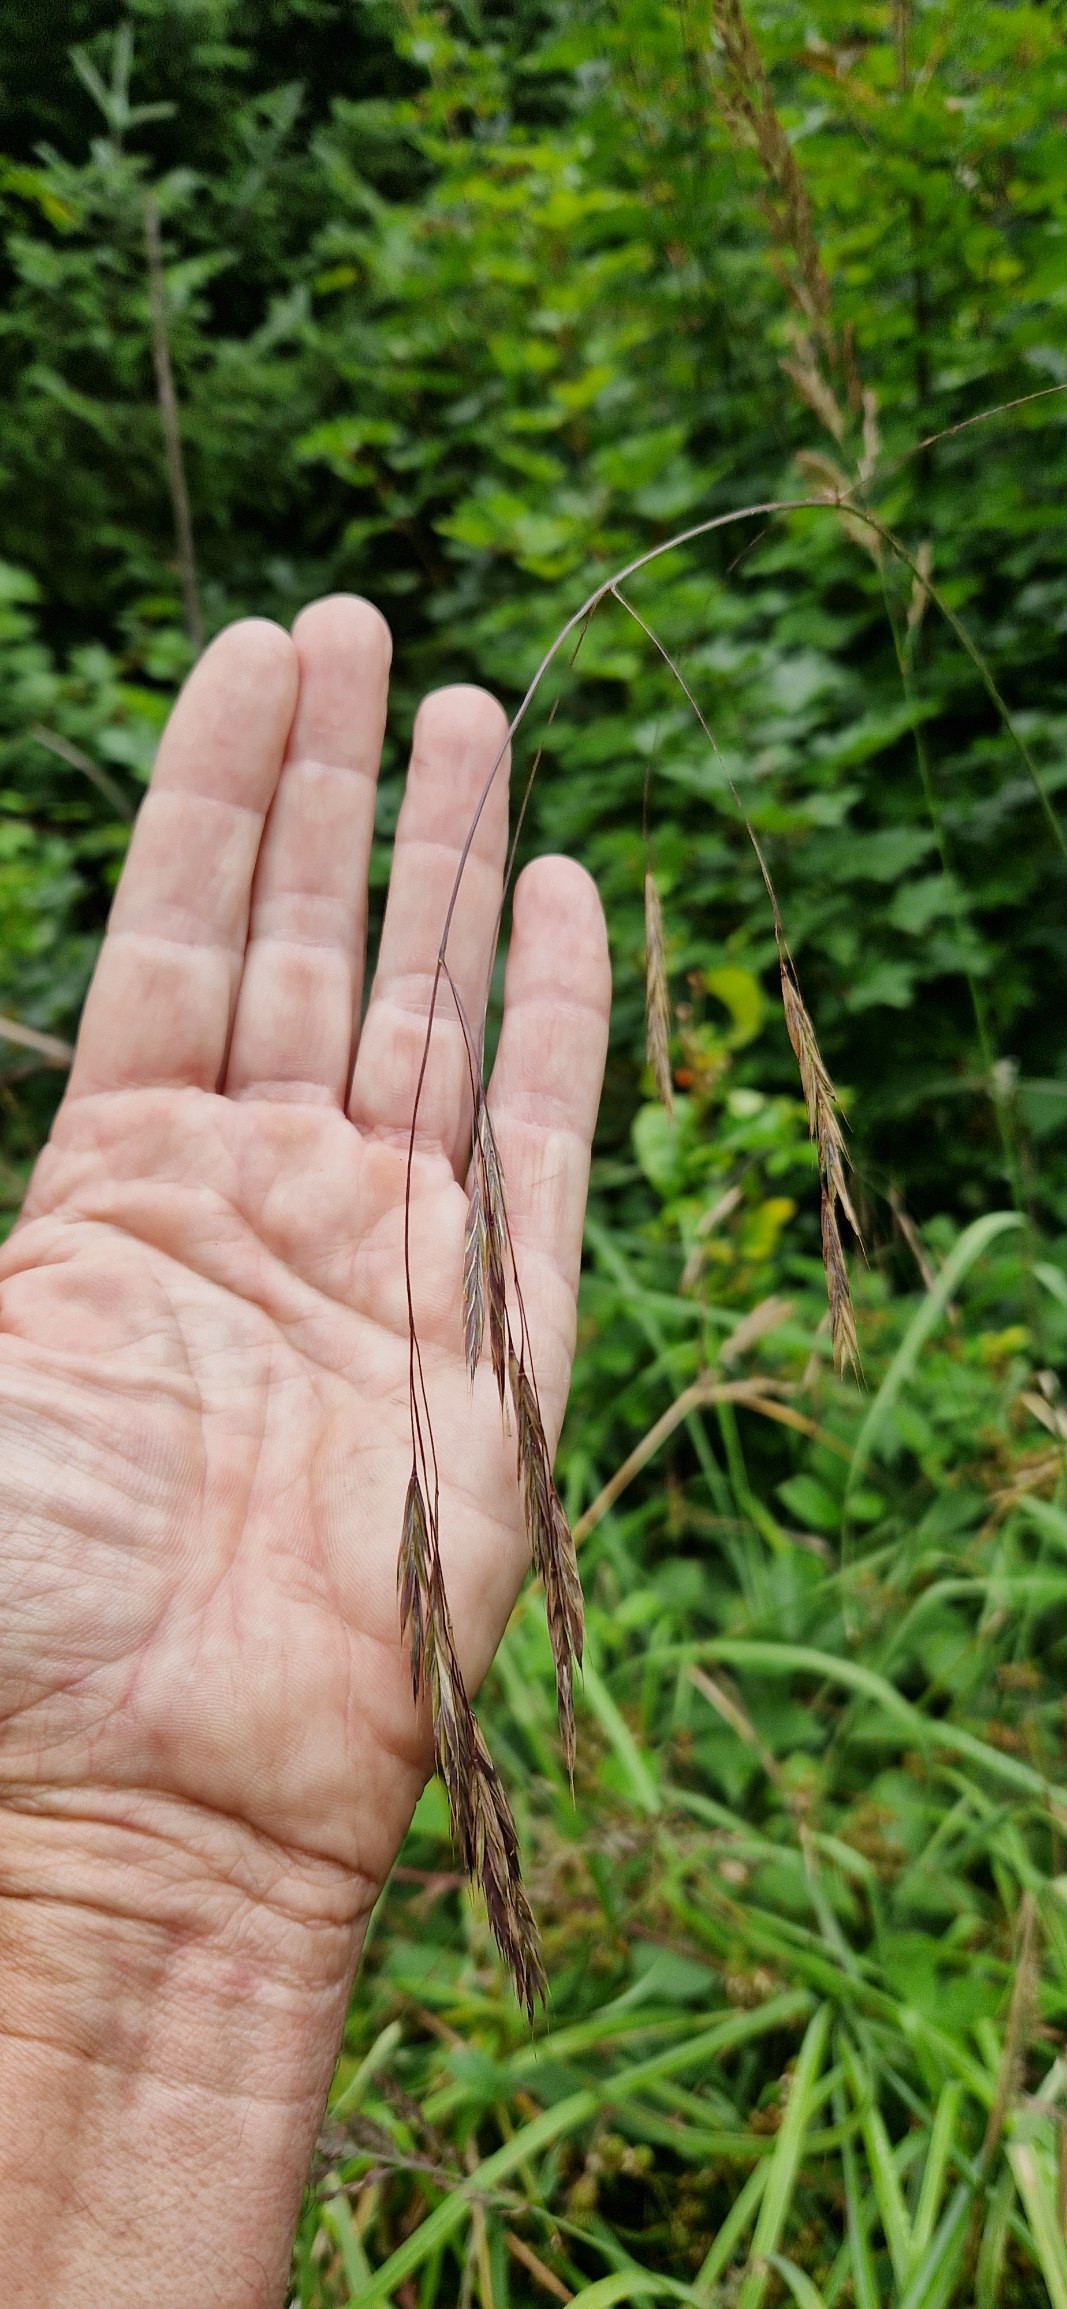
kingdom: Plantae
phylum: Tracheophyta
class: Liliopsida
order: Poales
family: Poaceae
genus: Bromus
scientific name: Bromus ramosus
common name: Sildig skov-hejre
